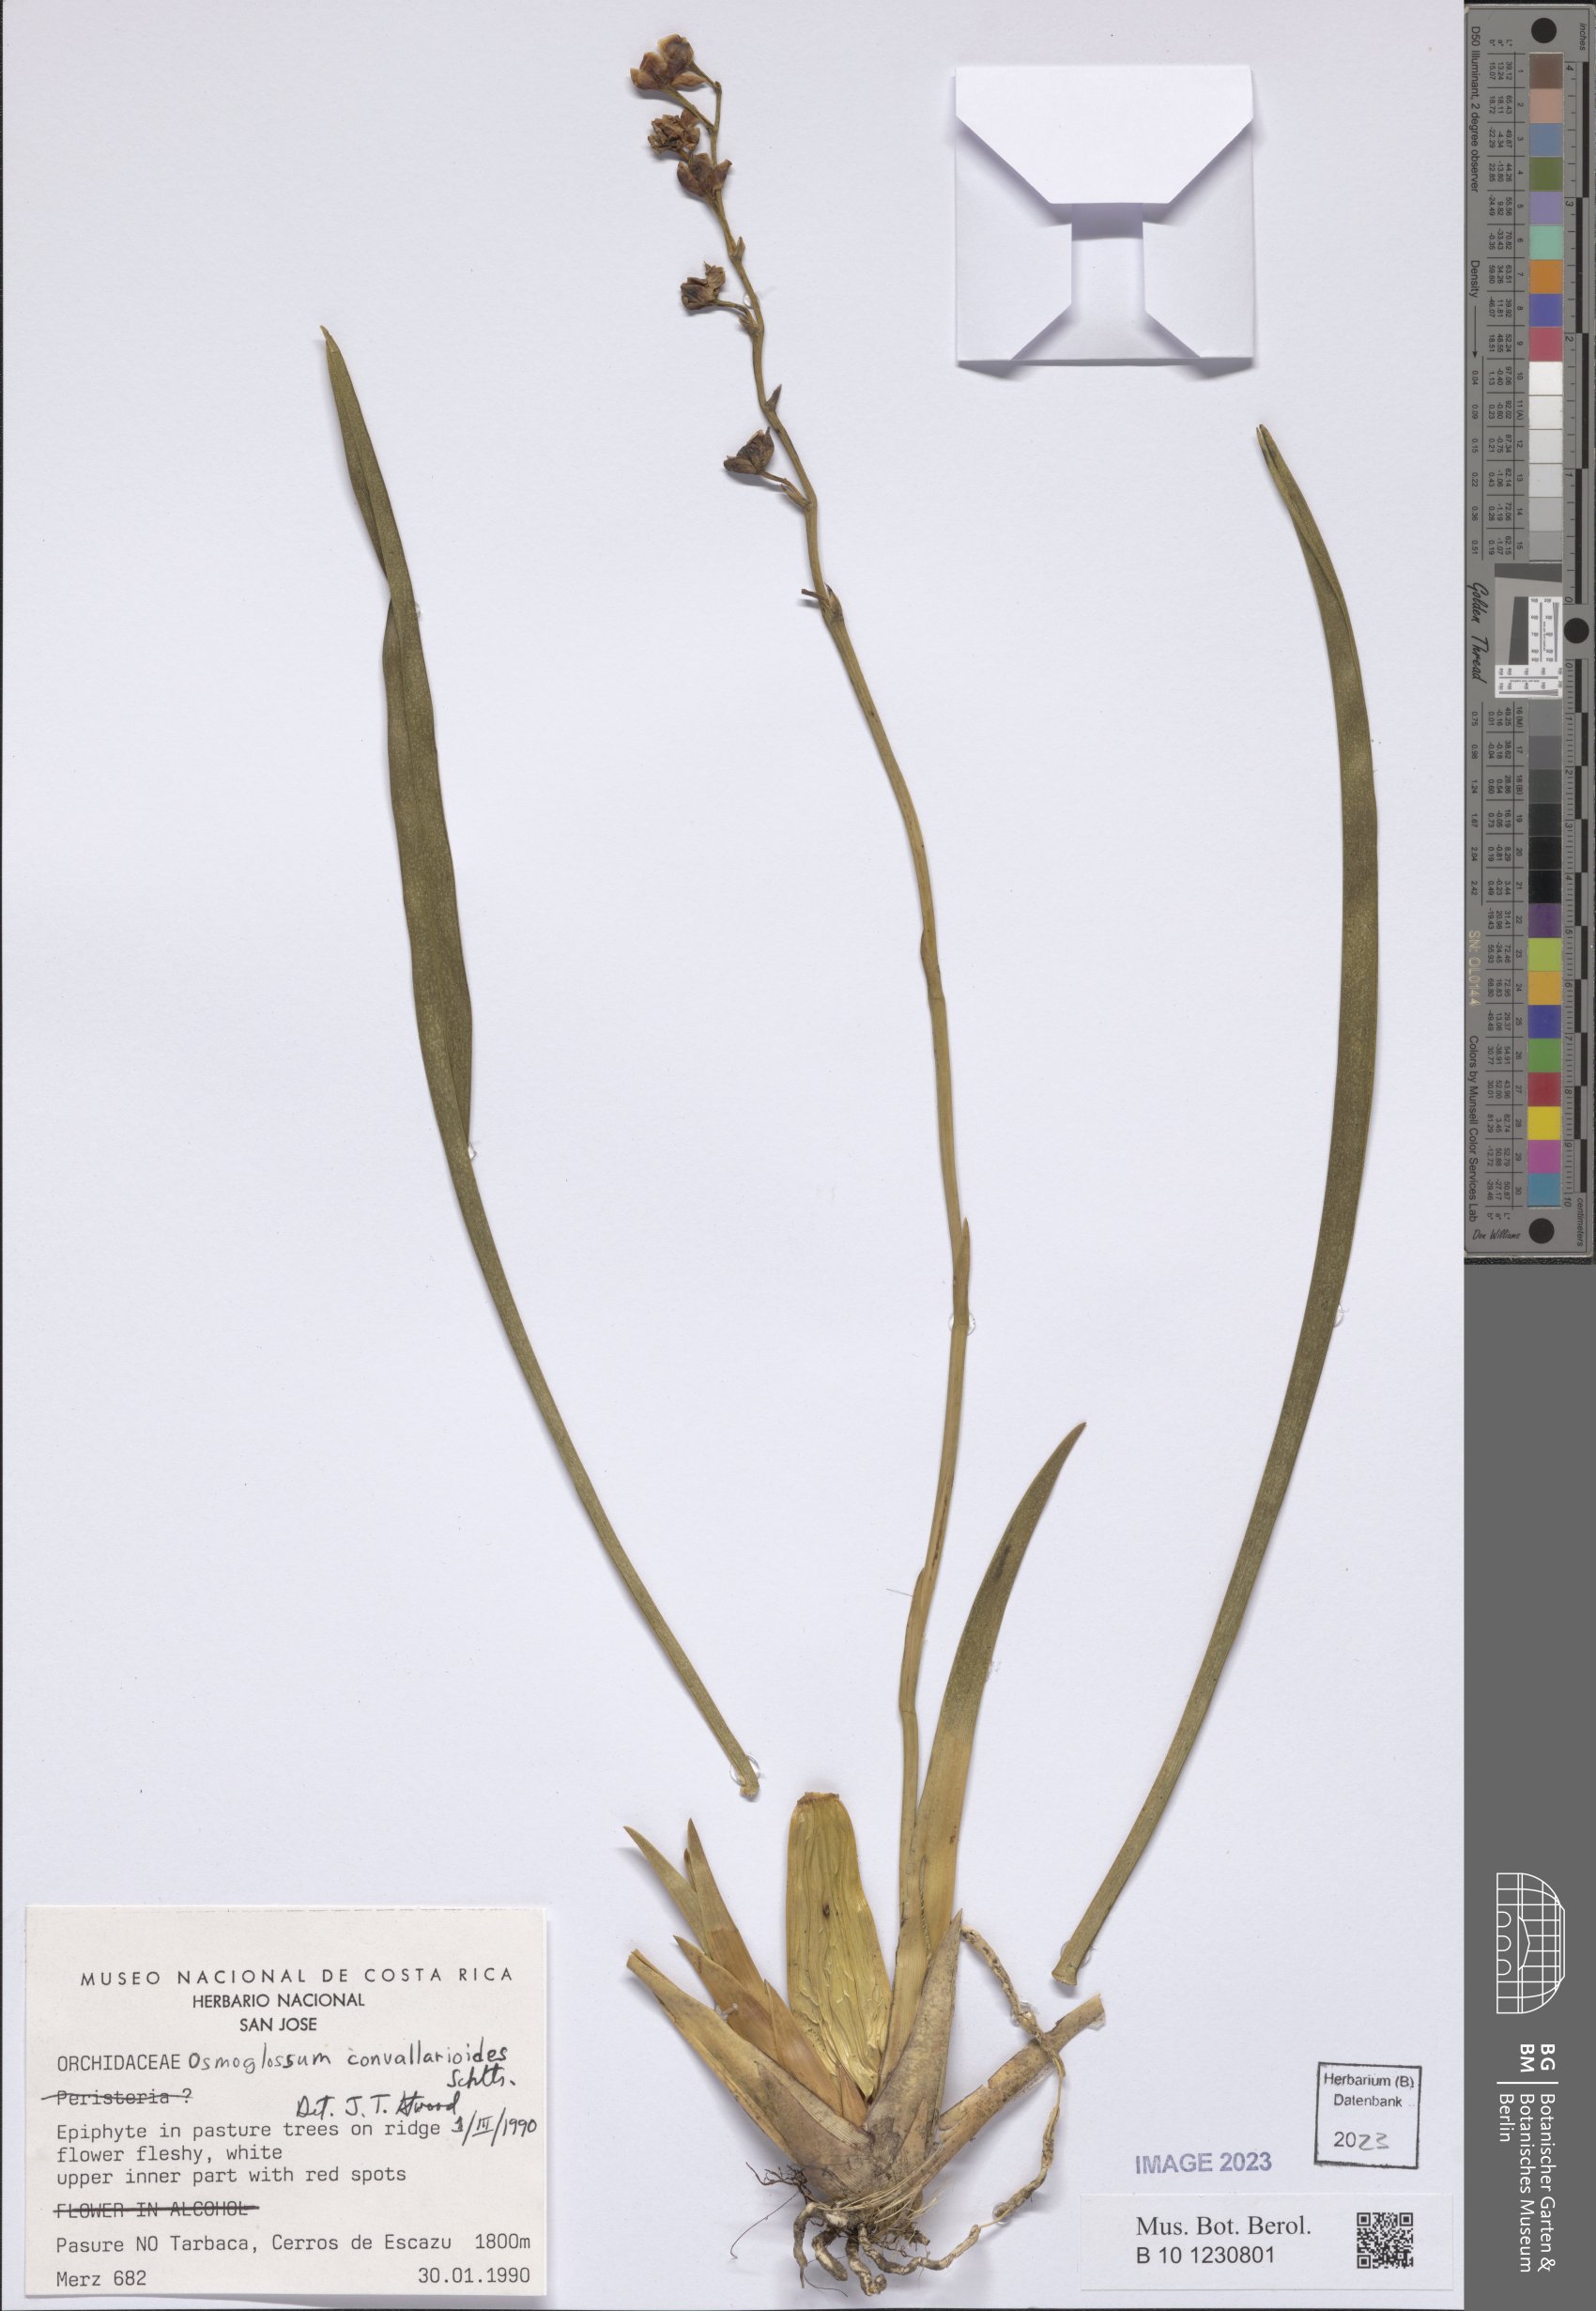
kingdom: Plantae
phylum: Tracheophyta
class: Liliopsida
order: Asparagales
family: Orchidaceae
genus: Cuitlauzina
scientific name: Cuitlauzina convallarioides
